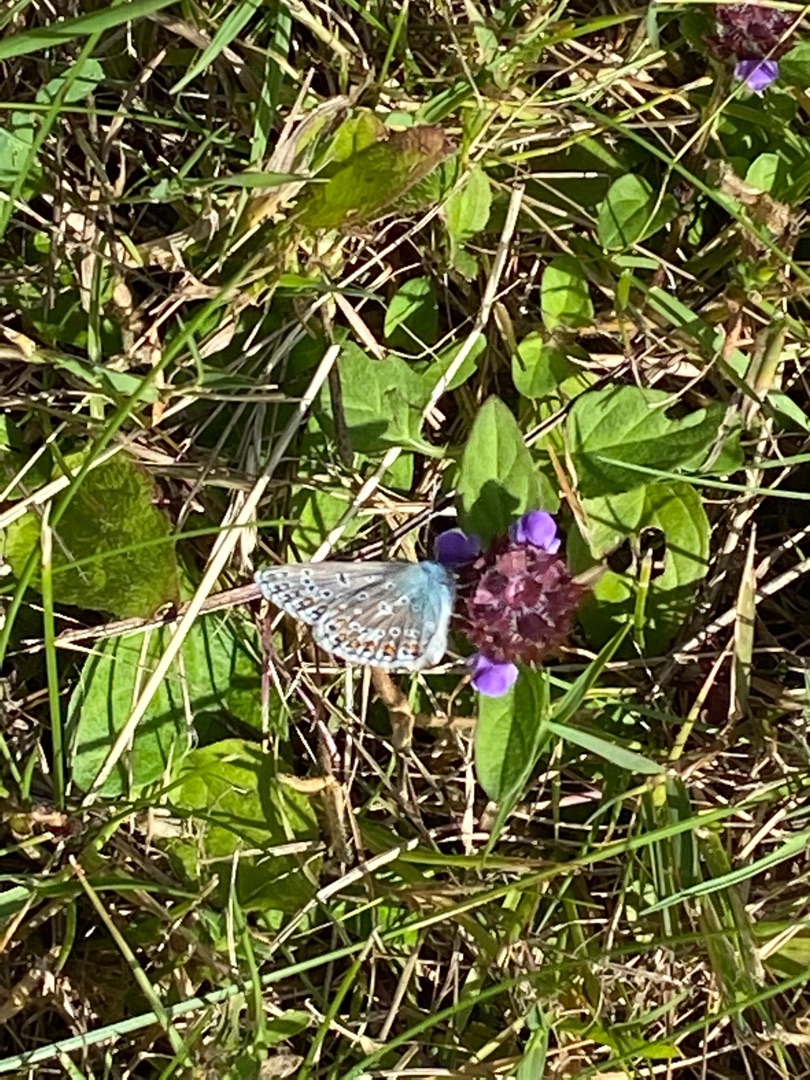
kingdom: Animalia
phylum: Arthropoda
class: Insecta
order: Lepidoptera
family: Lycaenidae
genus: Polyommatus
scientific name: Polyommatus icarus
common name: Almindelig blåfugl
